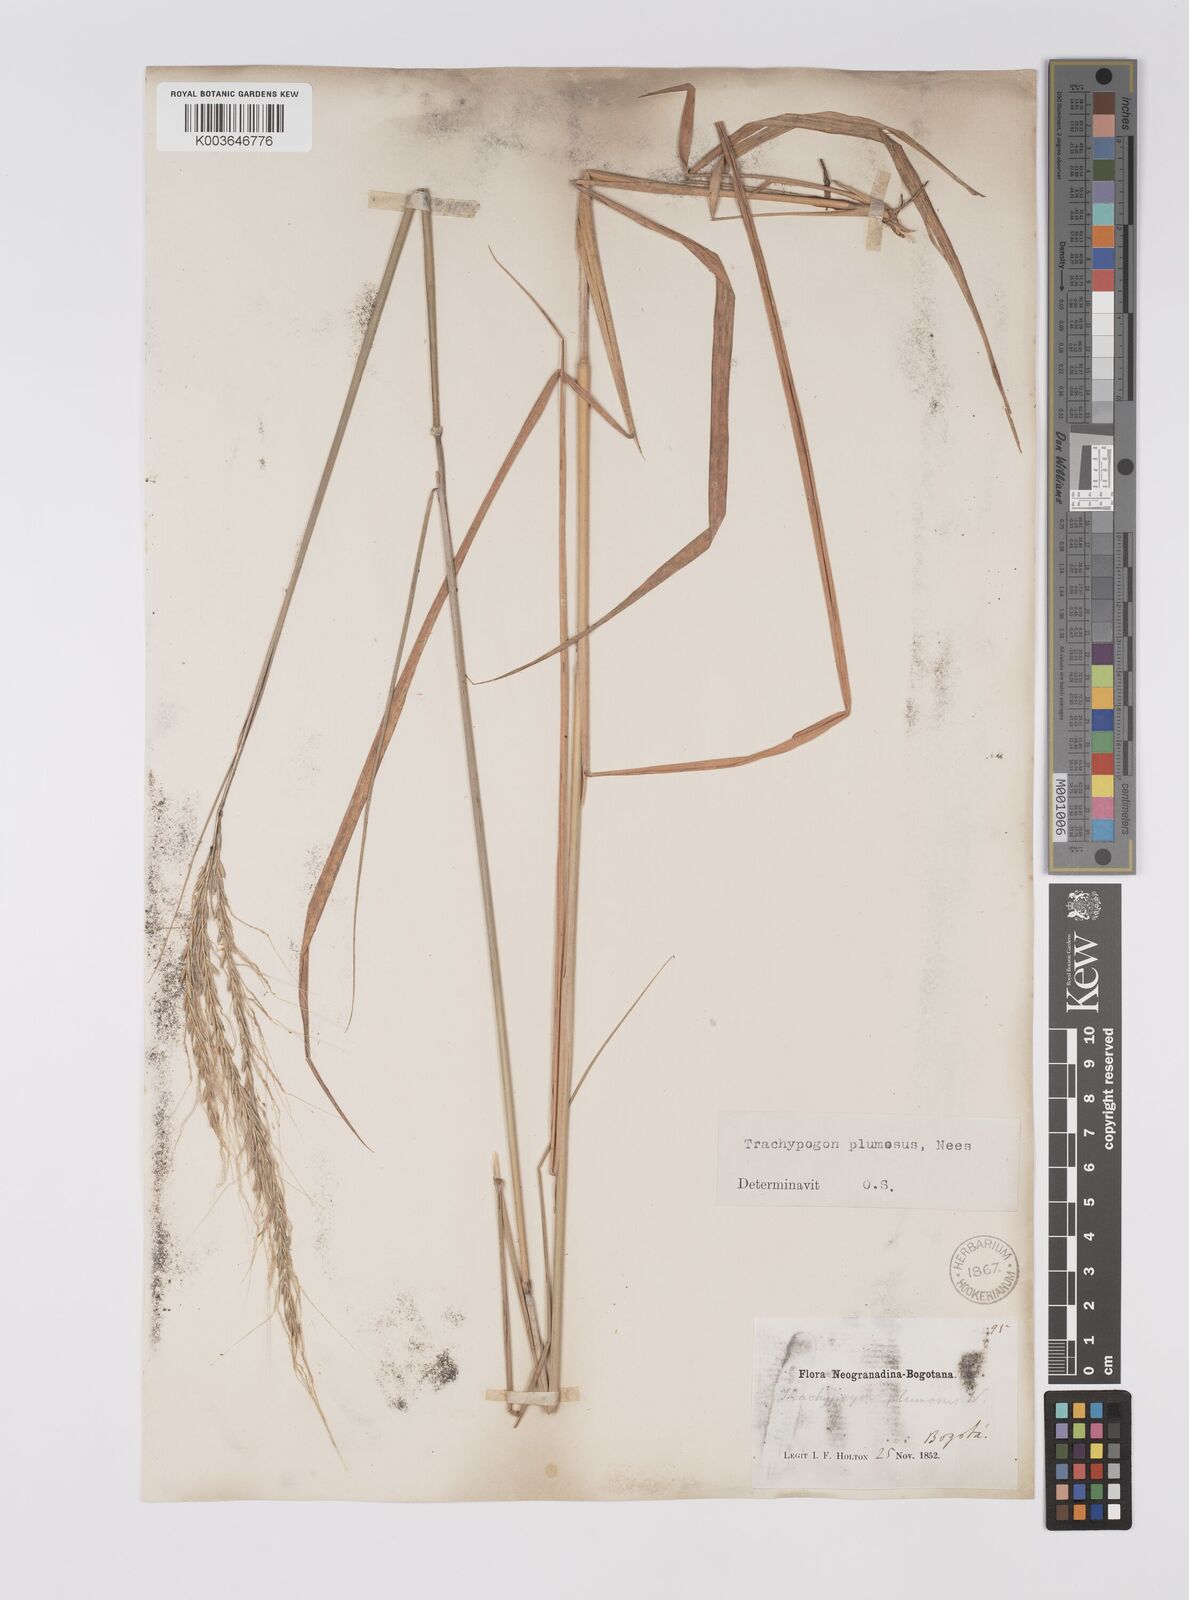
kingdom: Plantae
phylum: Tracheophyta
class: Liliopsida
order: Poales
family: Poaceae
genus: Trachypogon
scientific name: Trachypogon spicatus
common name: Crinkle-awn
